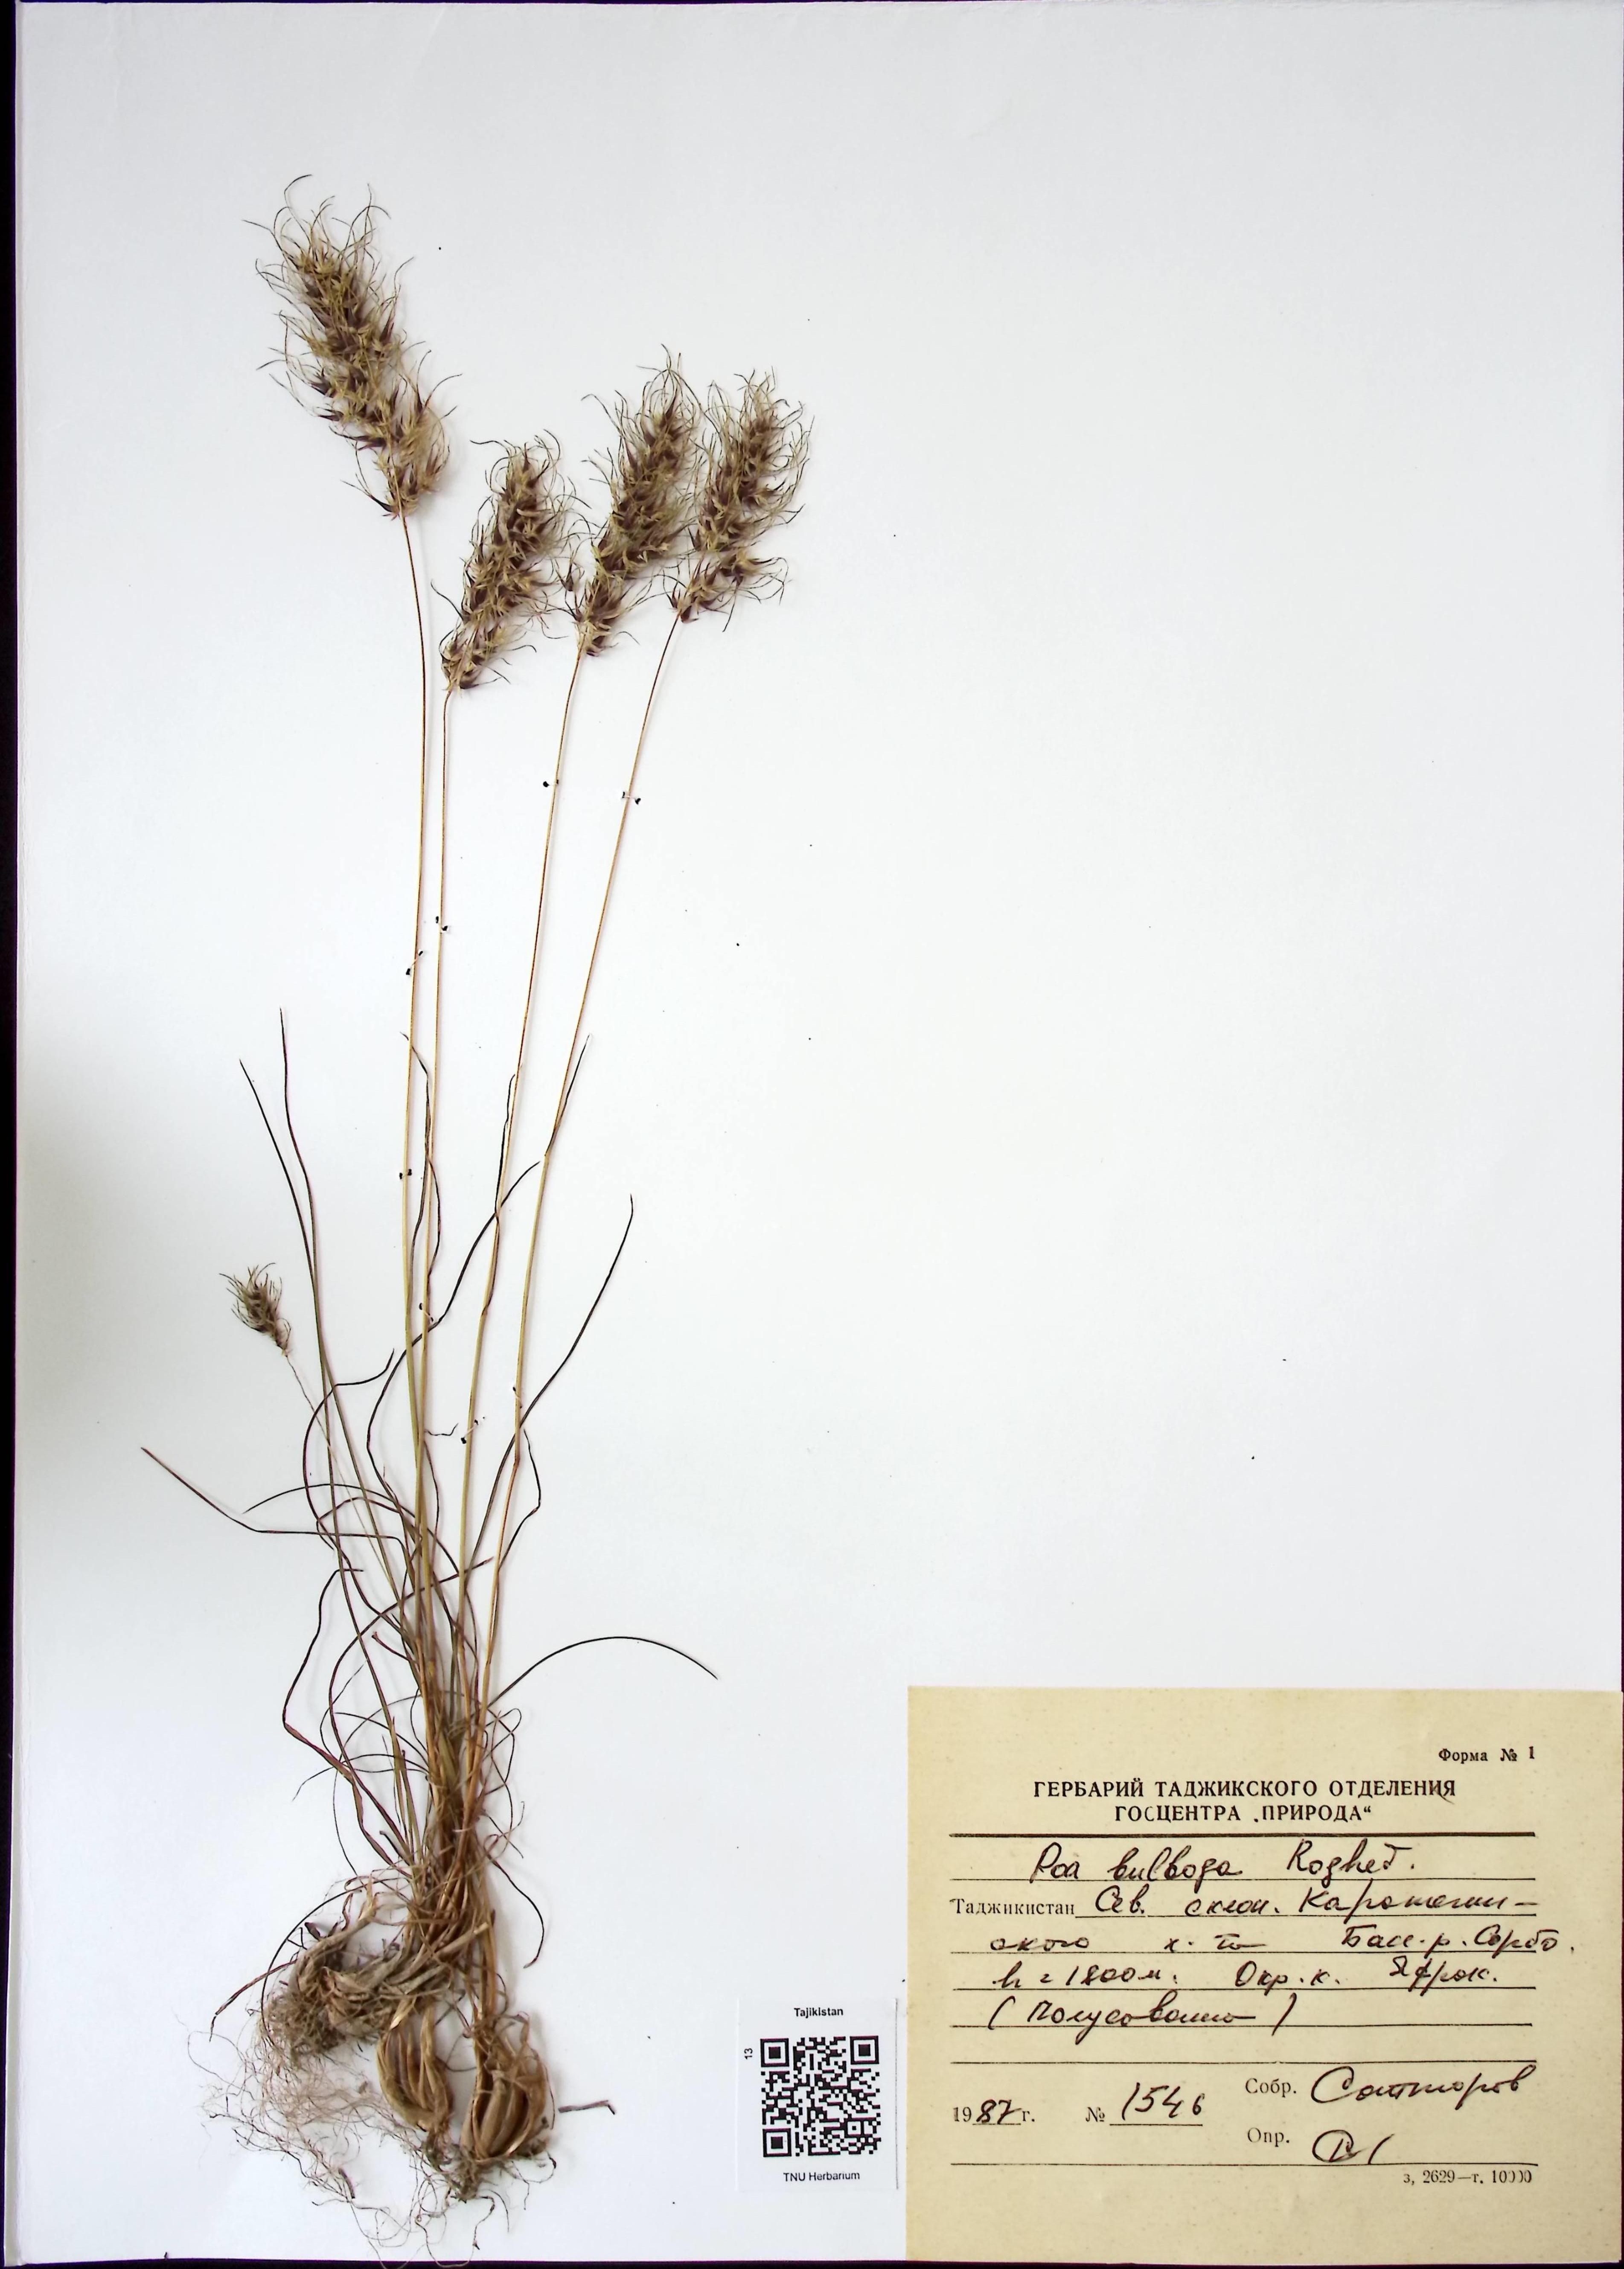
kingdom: Plantae
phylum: Tracheophyta
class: Liliopsida
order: Poales
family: Poaceae
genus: Poa
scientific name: Poa bulbosa
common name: Bulbous bluegrass
